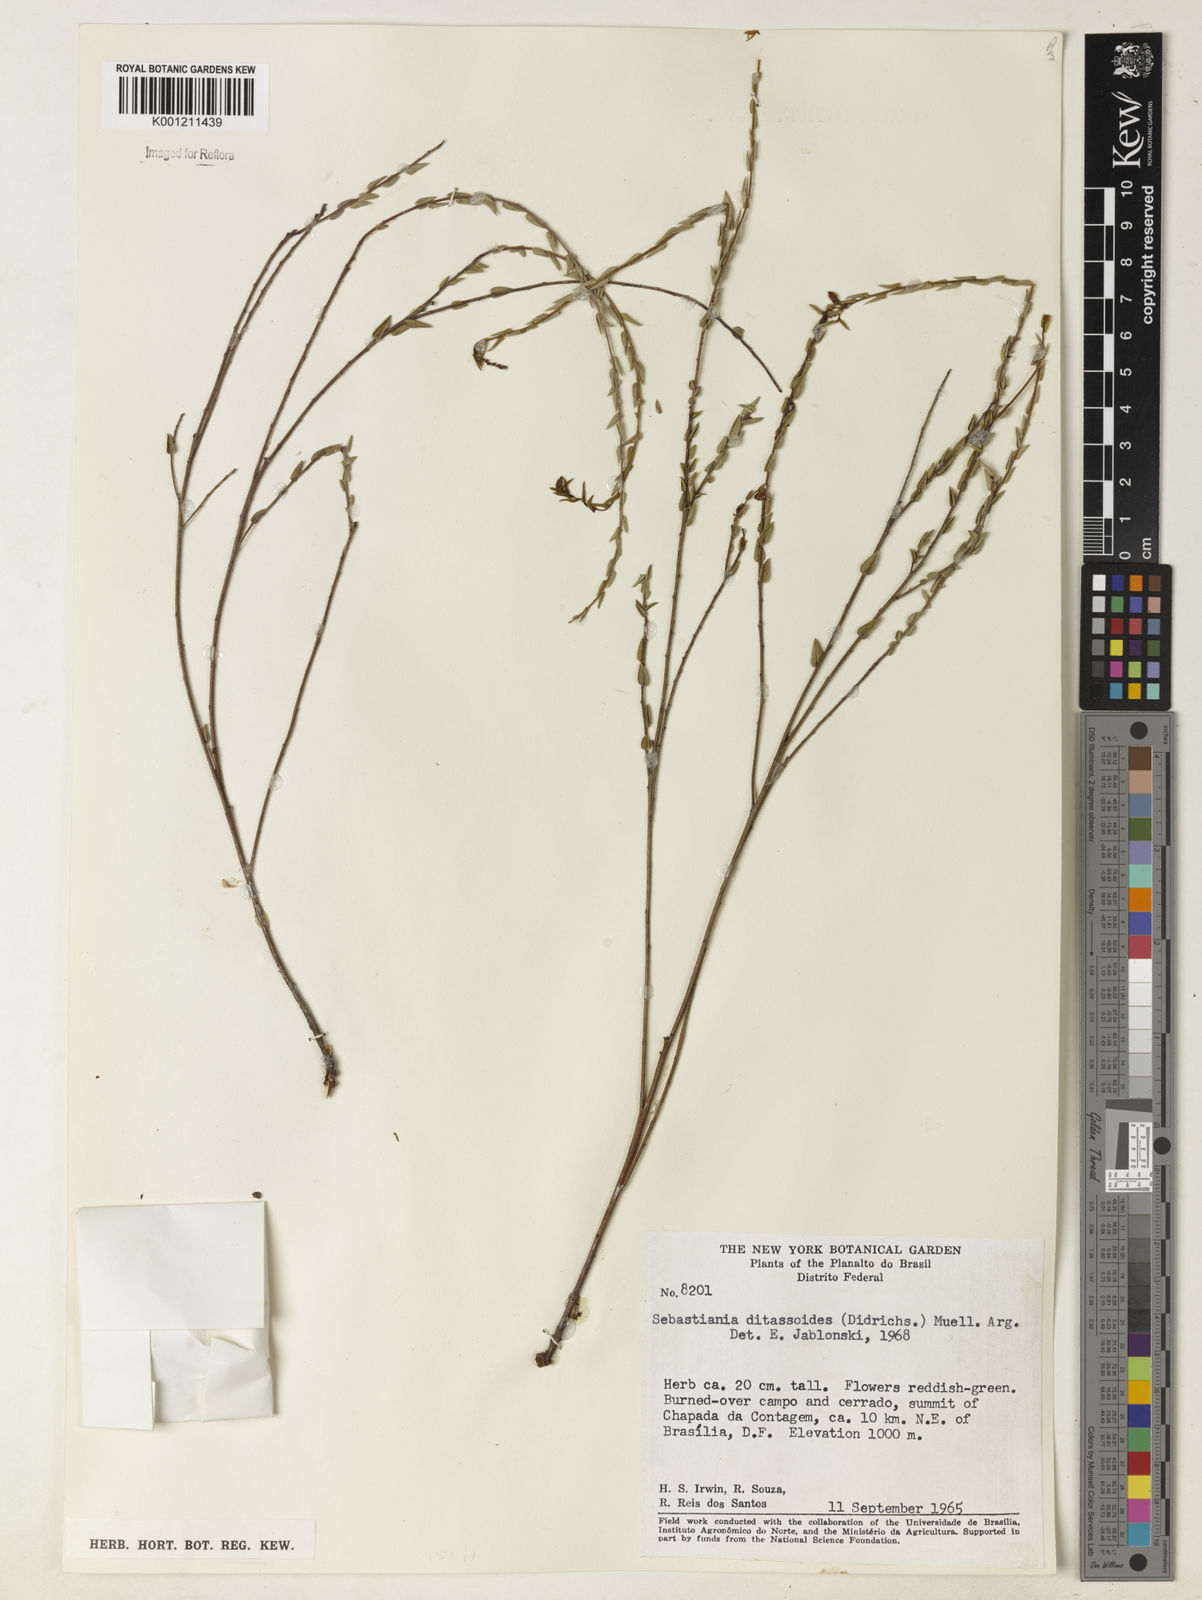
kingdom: Plantae
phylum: Tracheophyta
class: Magnoliopsida
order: Malpighiales
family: Euphorbiaceae
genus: Microstachys
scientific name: Microstachys ditassoides
